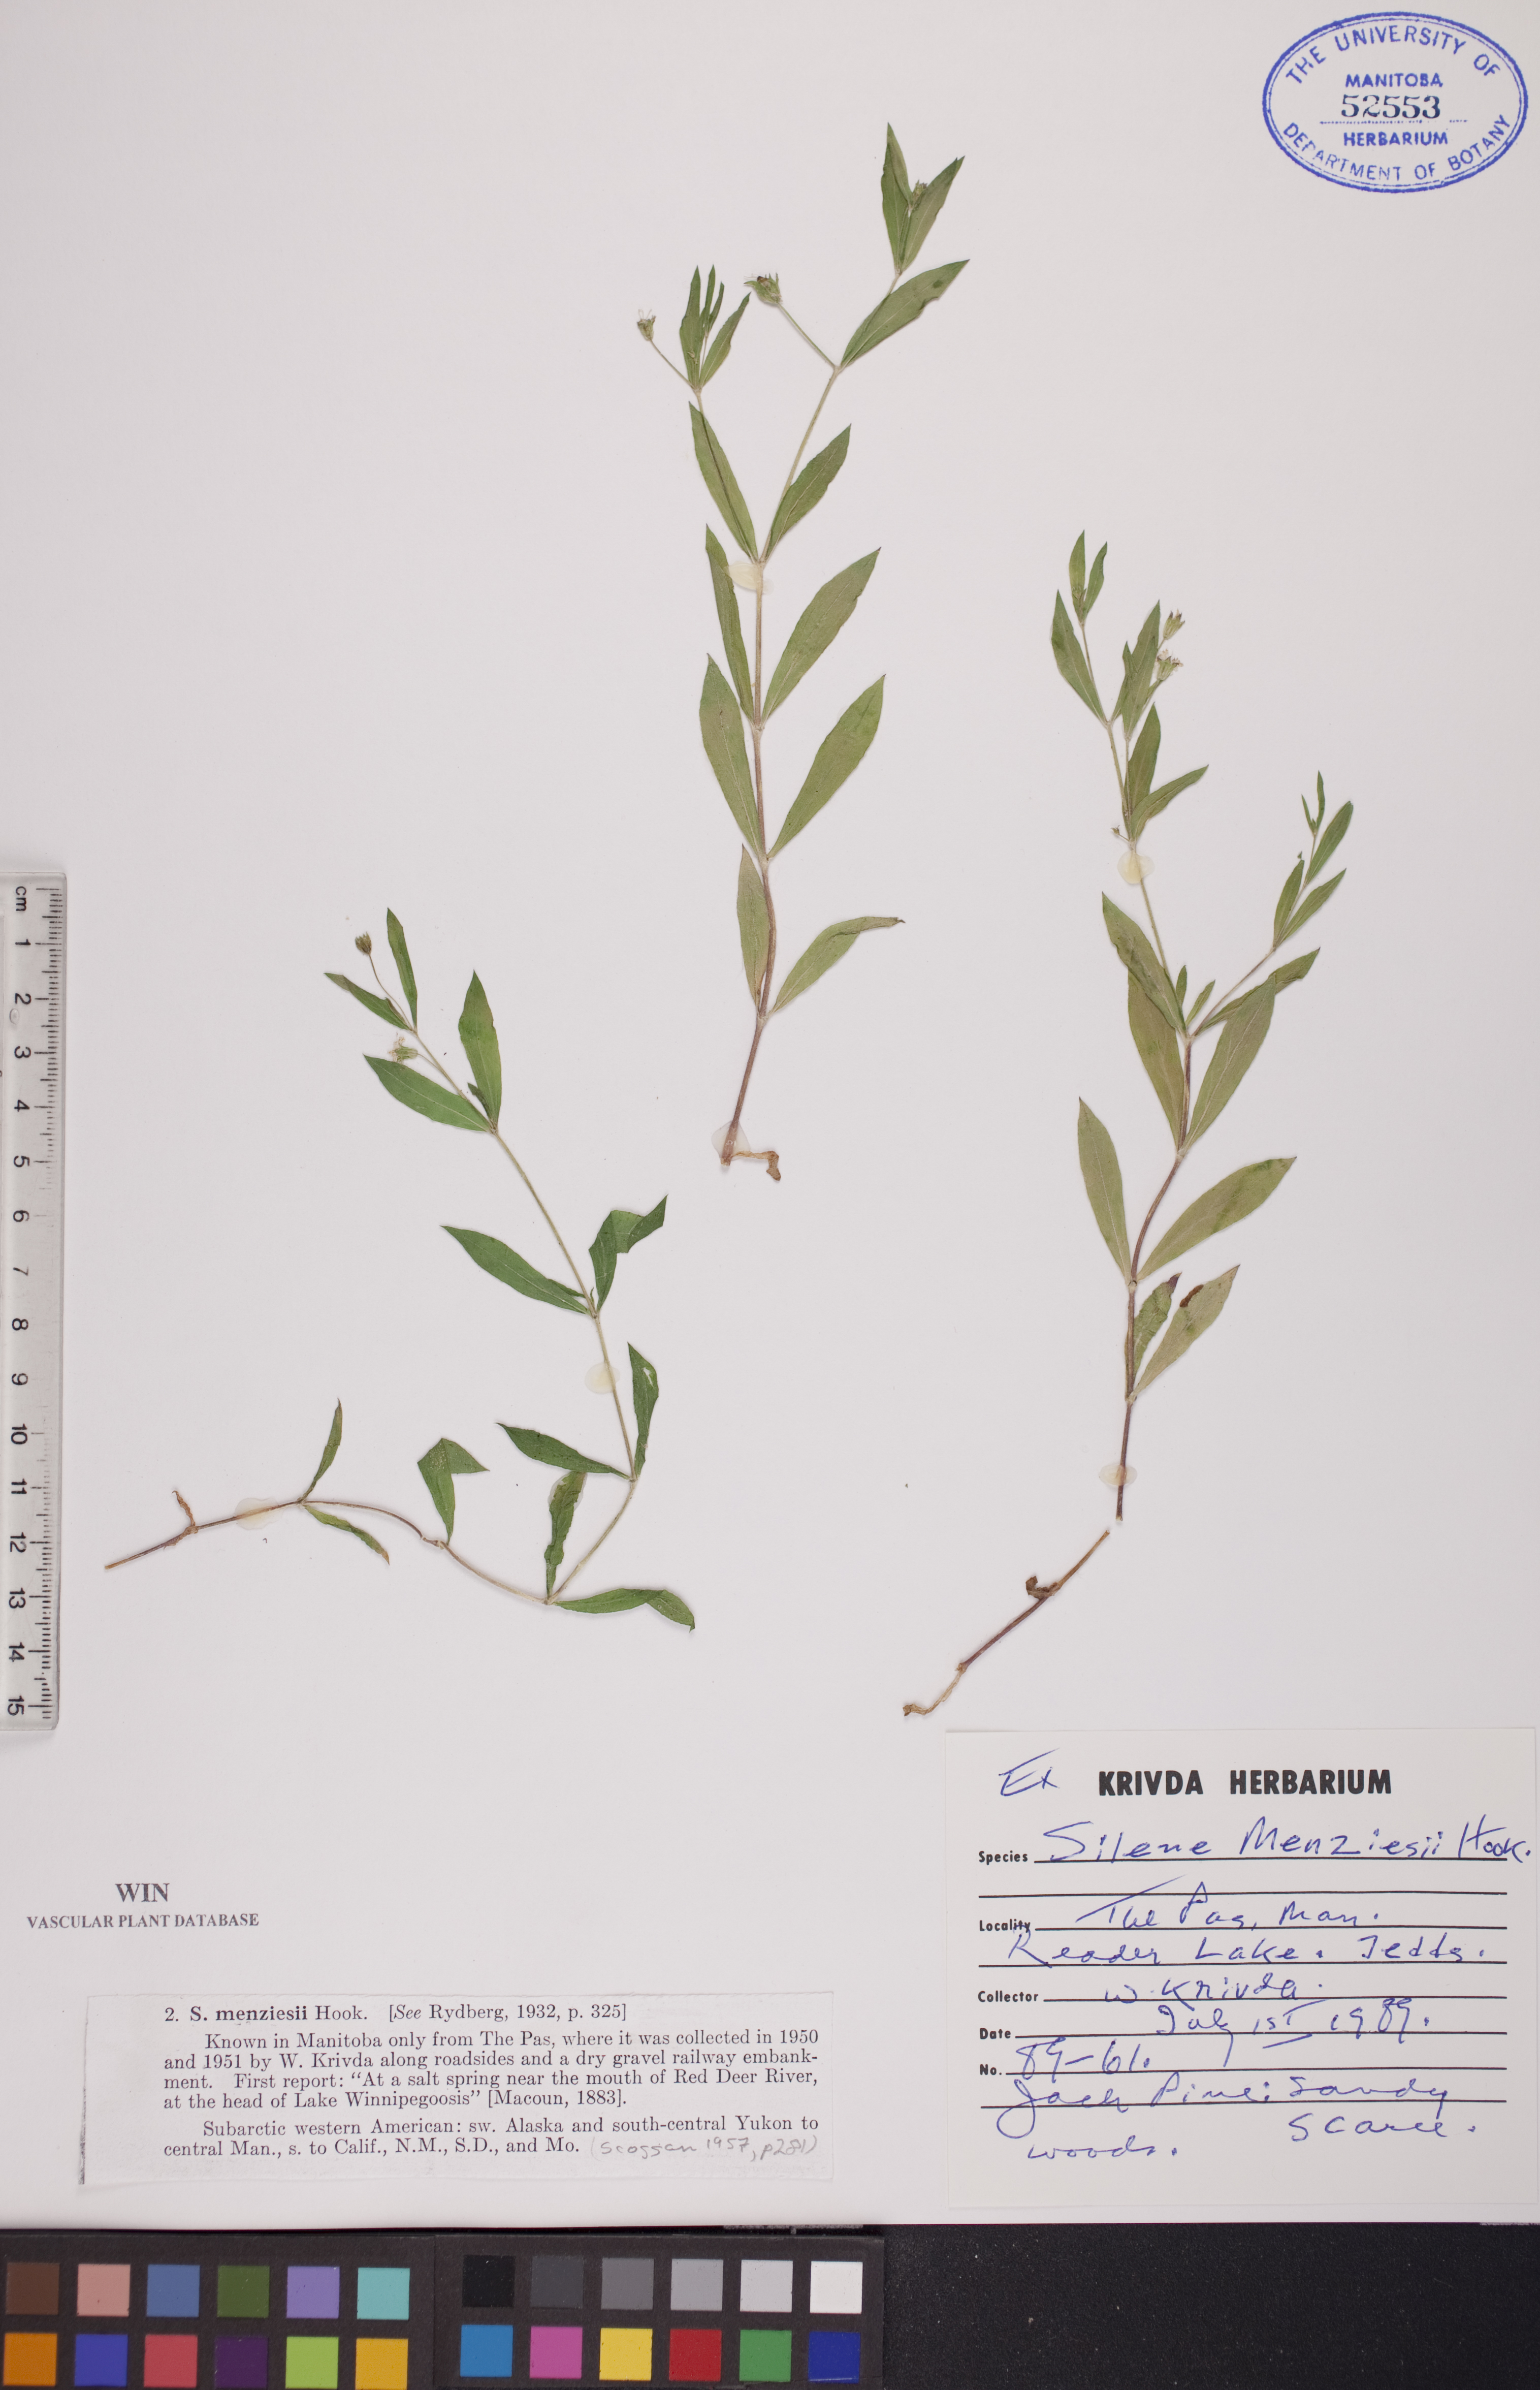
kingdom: Plantae
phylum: Tracheophyta
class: Magnoliopsida
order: Caryophyllales
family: Caryophyllaceae
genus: Silene
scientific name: Silene menziesii
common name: Menzies's catchfly
